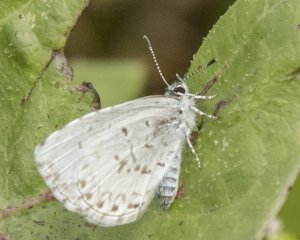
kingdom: Animalia
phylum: Arthropoda
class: Insecta
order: Lepidoptera
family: Lycaenidae
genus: Cyaniris
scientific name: Cyaniris neglecta
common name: Summer Azure
